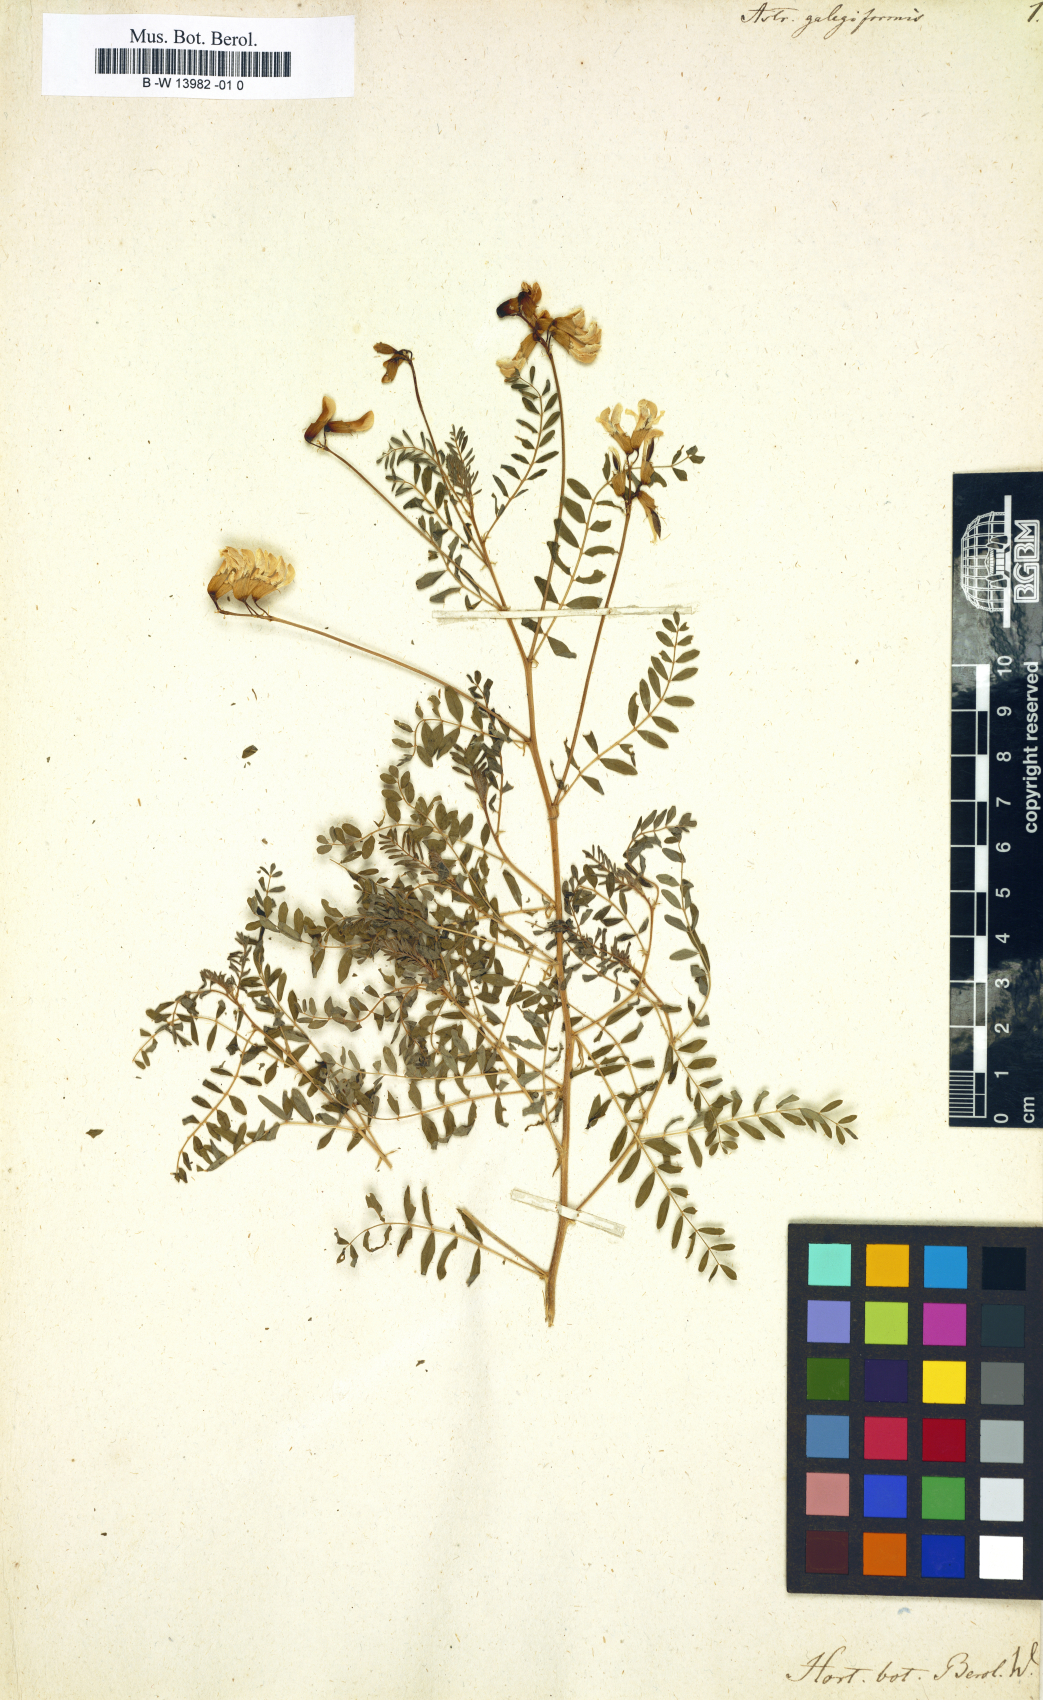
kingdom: Plantae
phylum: Tracheophyta
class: Magnoliopsida
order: Fabales
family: Fabaceae
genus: Astragalus
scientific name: Astragalus galegiformis
